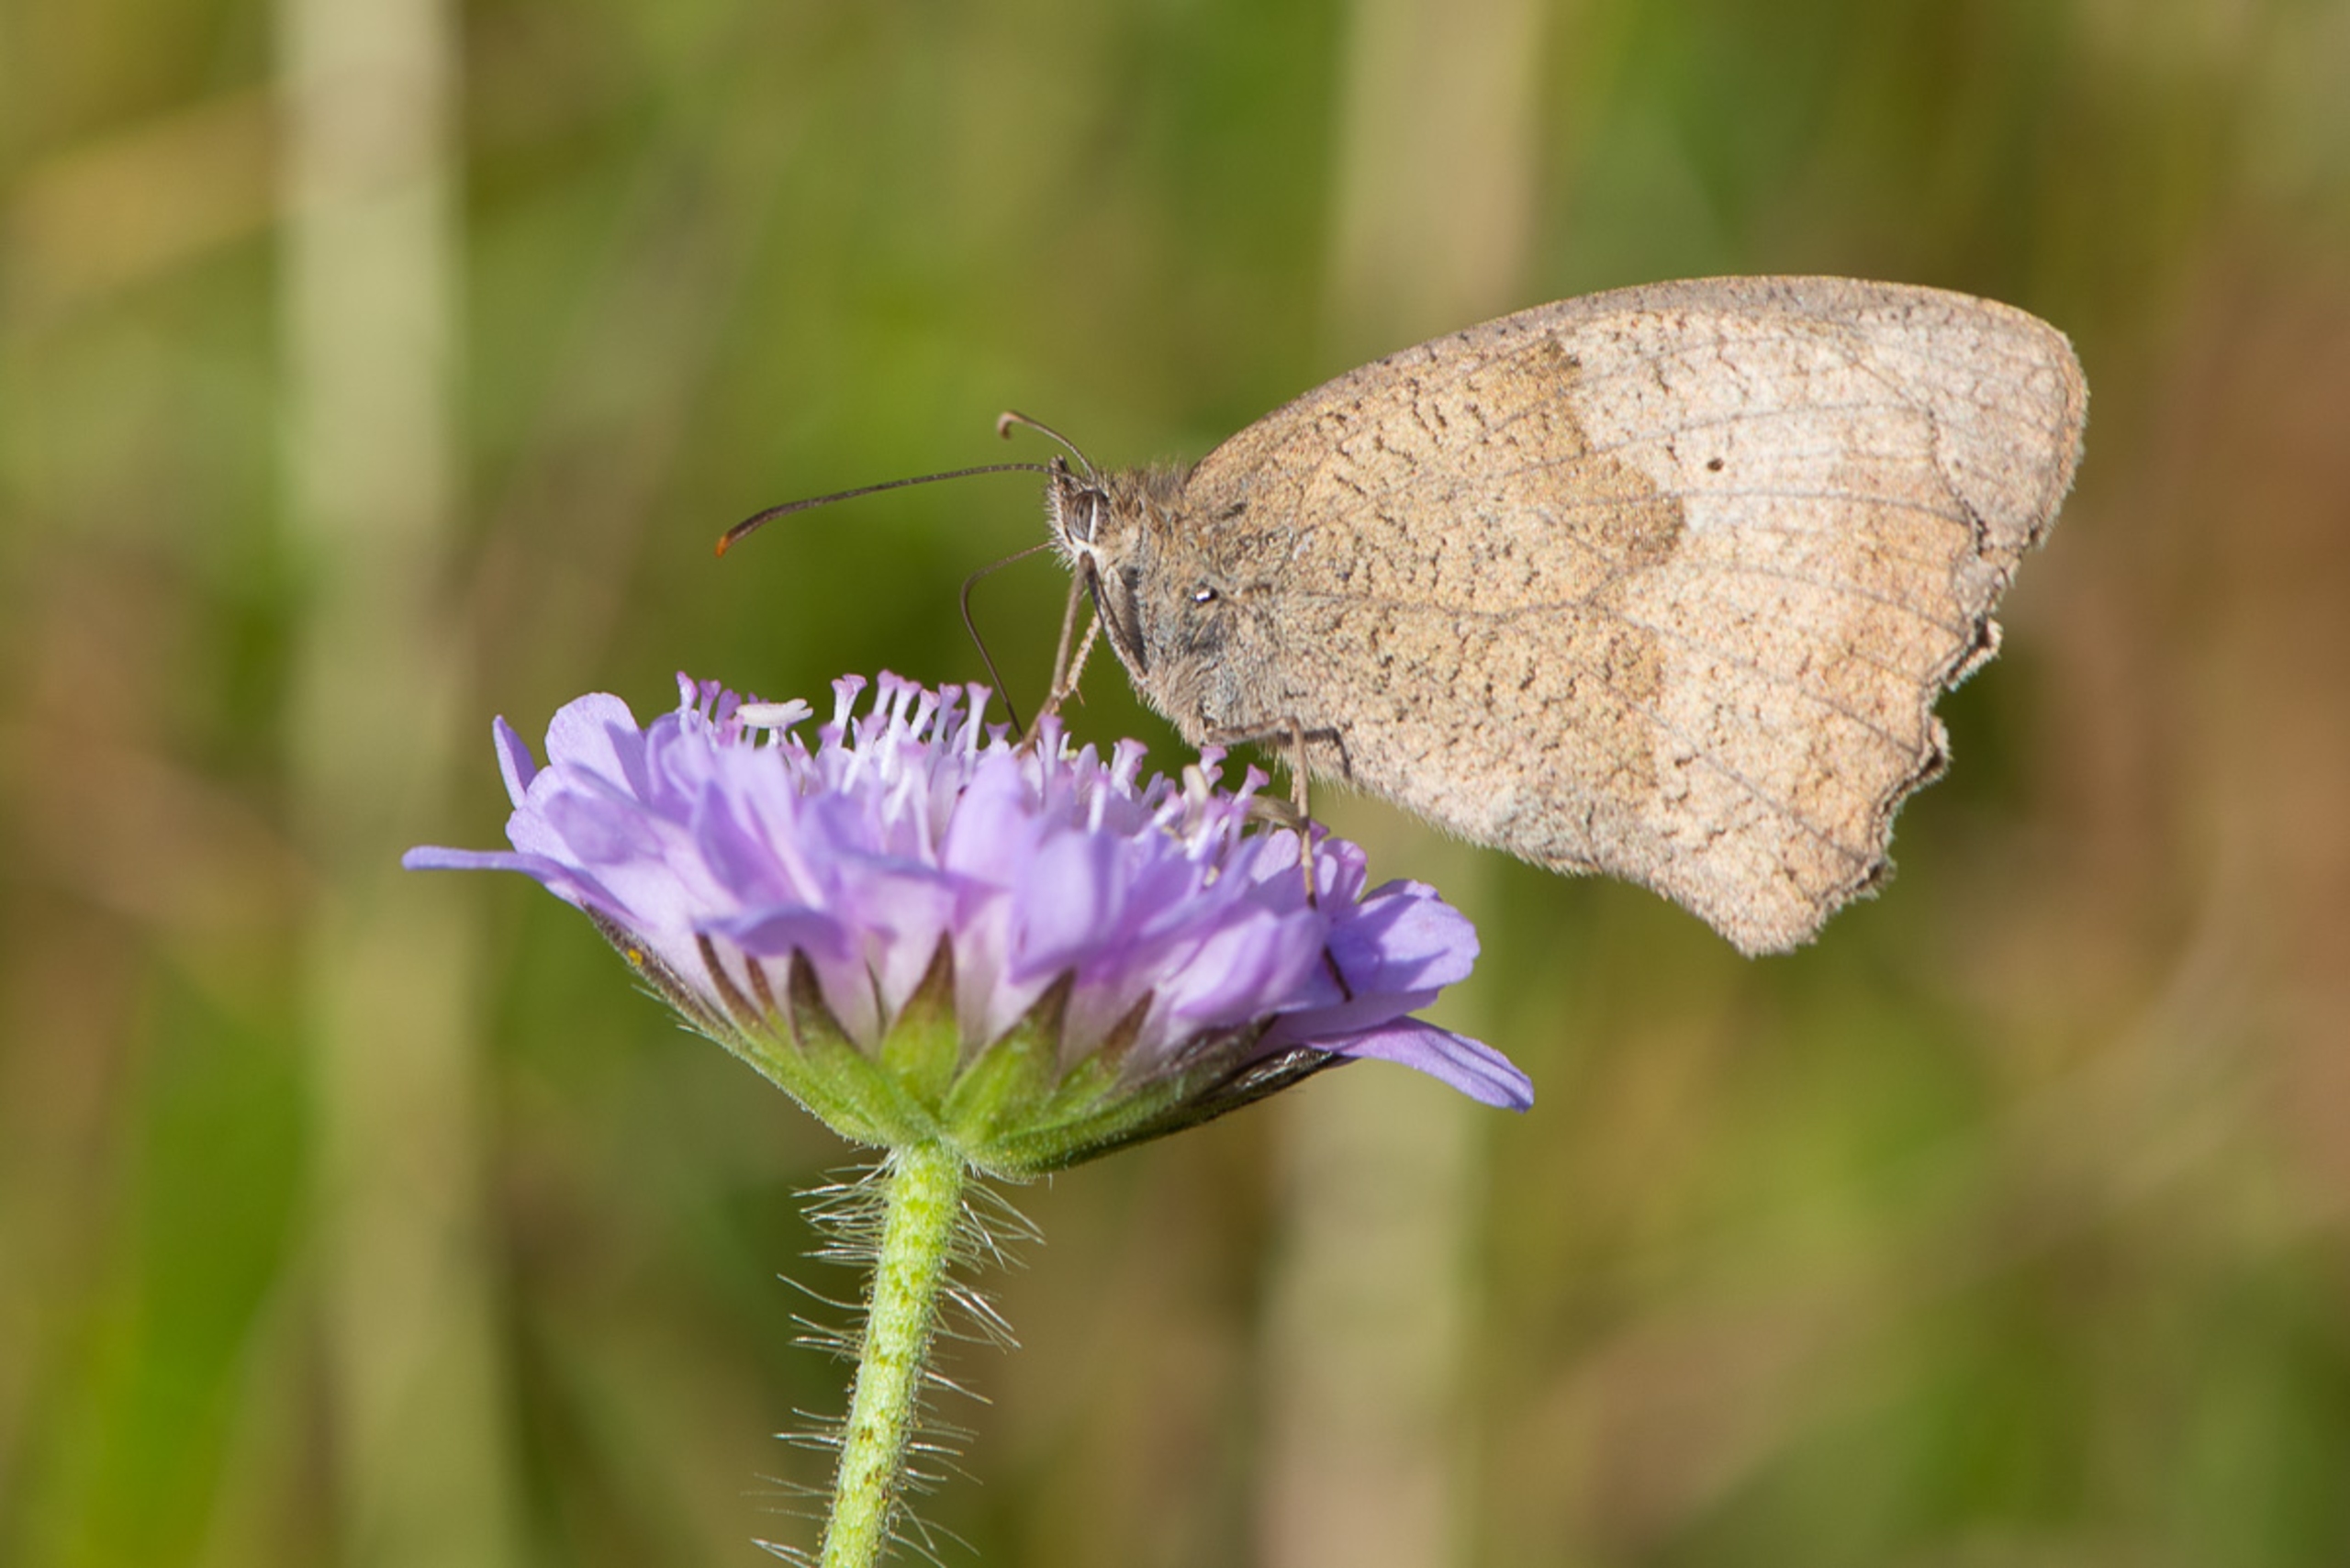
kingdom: Animalia
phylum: Arthropoda
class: Insecta
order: Lepidoptera
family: Nymphalidae
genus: Maniola
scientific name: Maniola jurtina
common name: Græsrandøje
